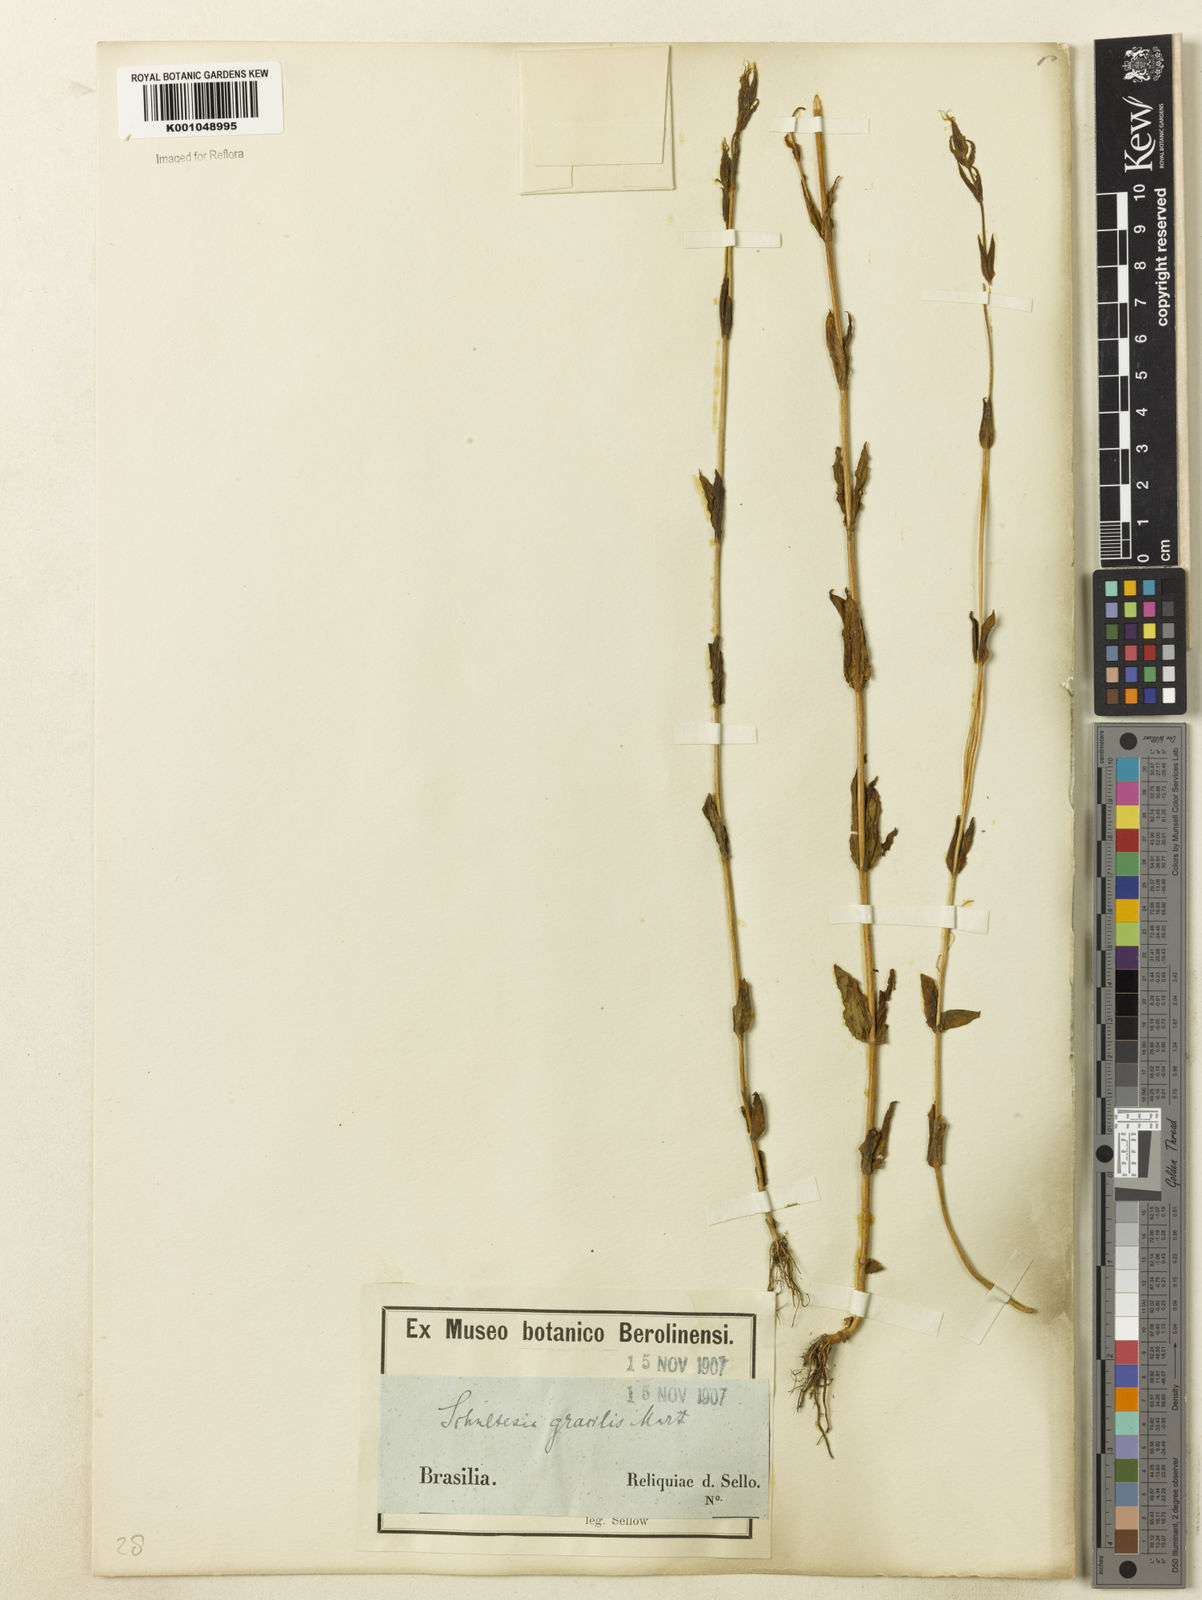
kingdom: Plantae
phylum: Tracheophyta
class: Magnoliopsida
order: Gentianales
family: Gentianaceae
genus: Schultesia
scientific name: Schultesia australis
